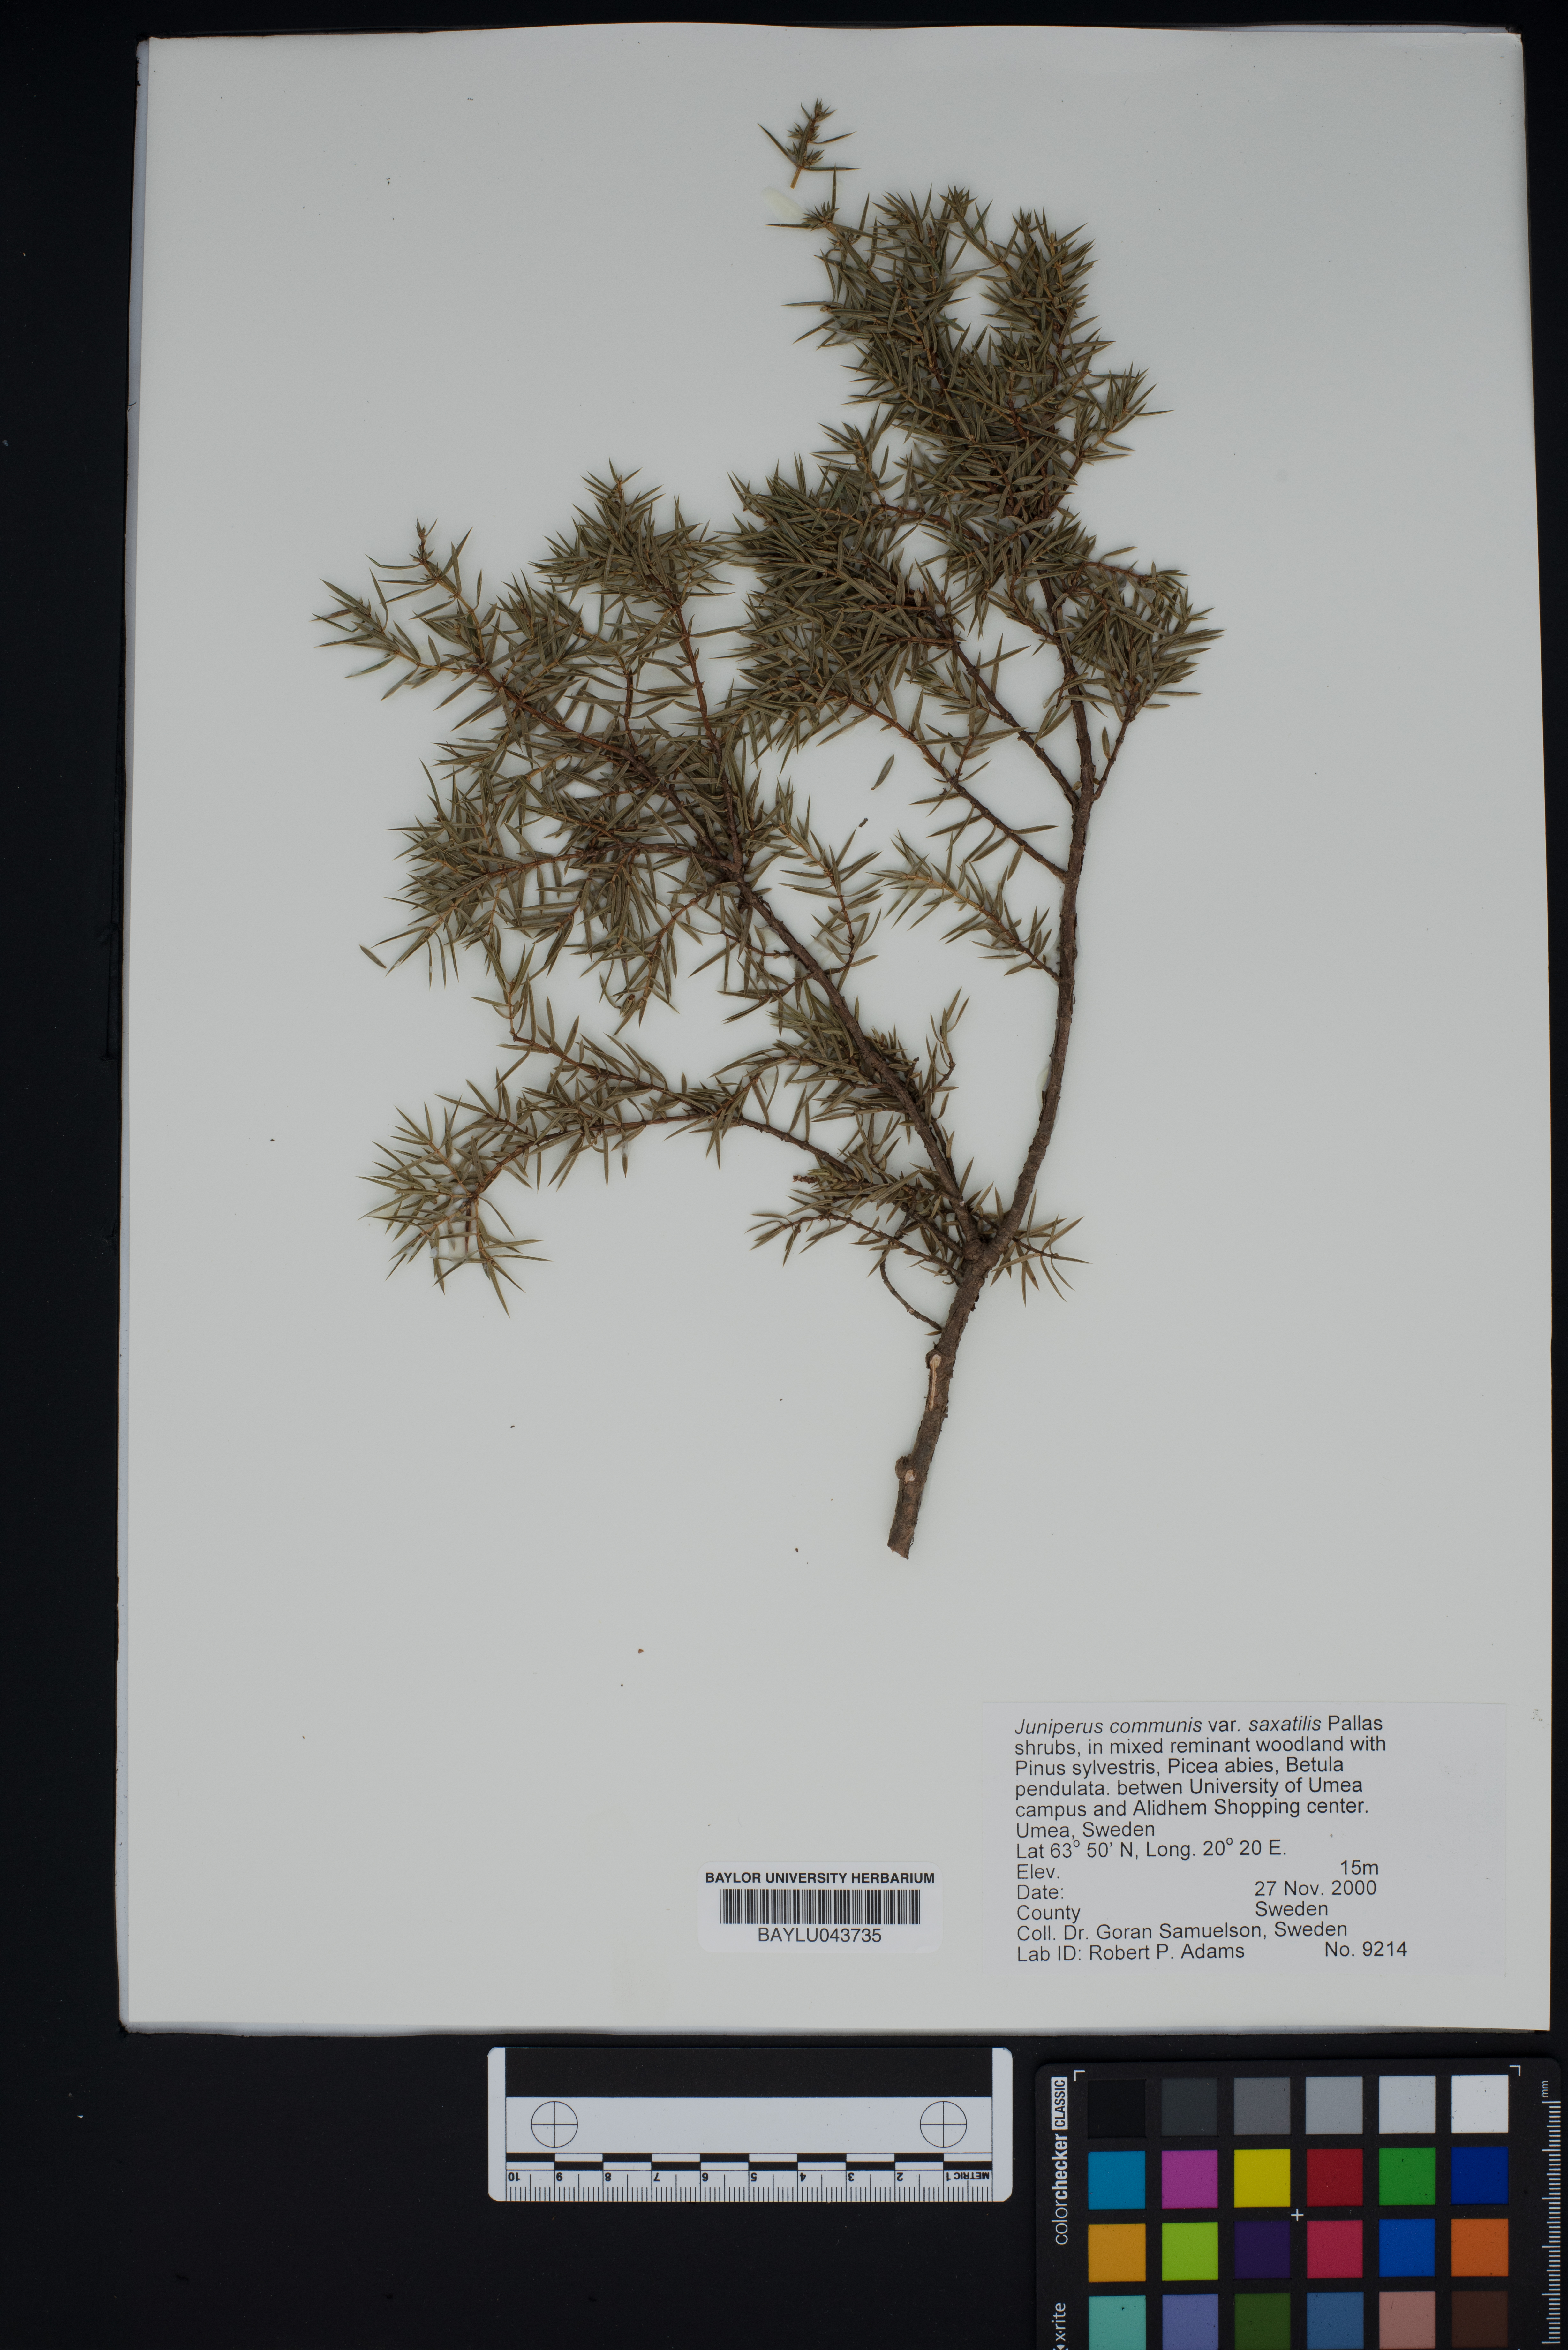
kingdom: Plantae
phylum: Tracheophyta
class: Pinopsida
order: Pinales
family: Cupressaceae
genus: Juniperus
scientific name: Juniperus communis
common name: Common juniper
